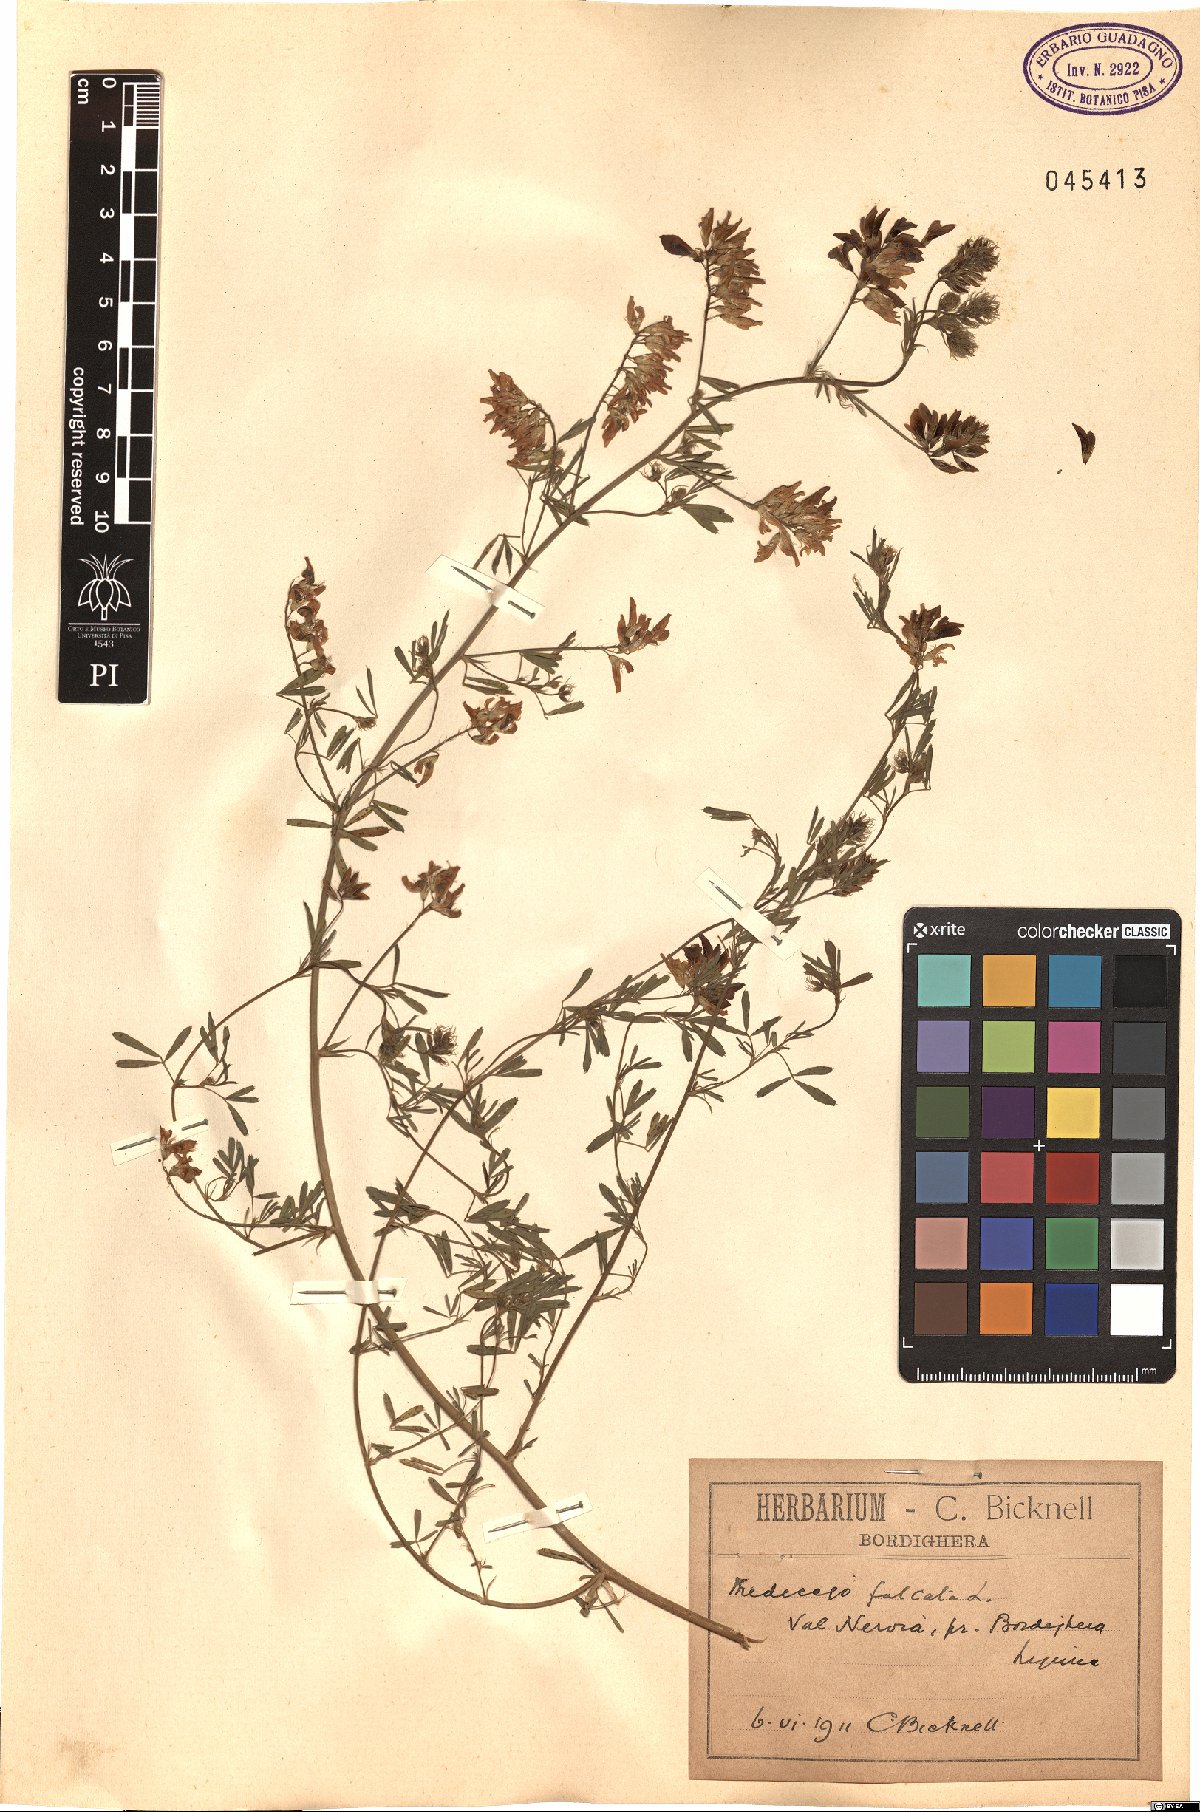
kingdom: Plantae
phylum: Tracheophyta
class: Magnoliopsida
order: Fabales
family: Fabaceae
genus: Medicago
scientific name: Medicago falcata
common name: Sickle medick
